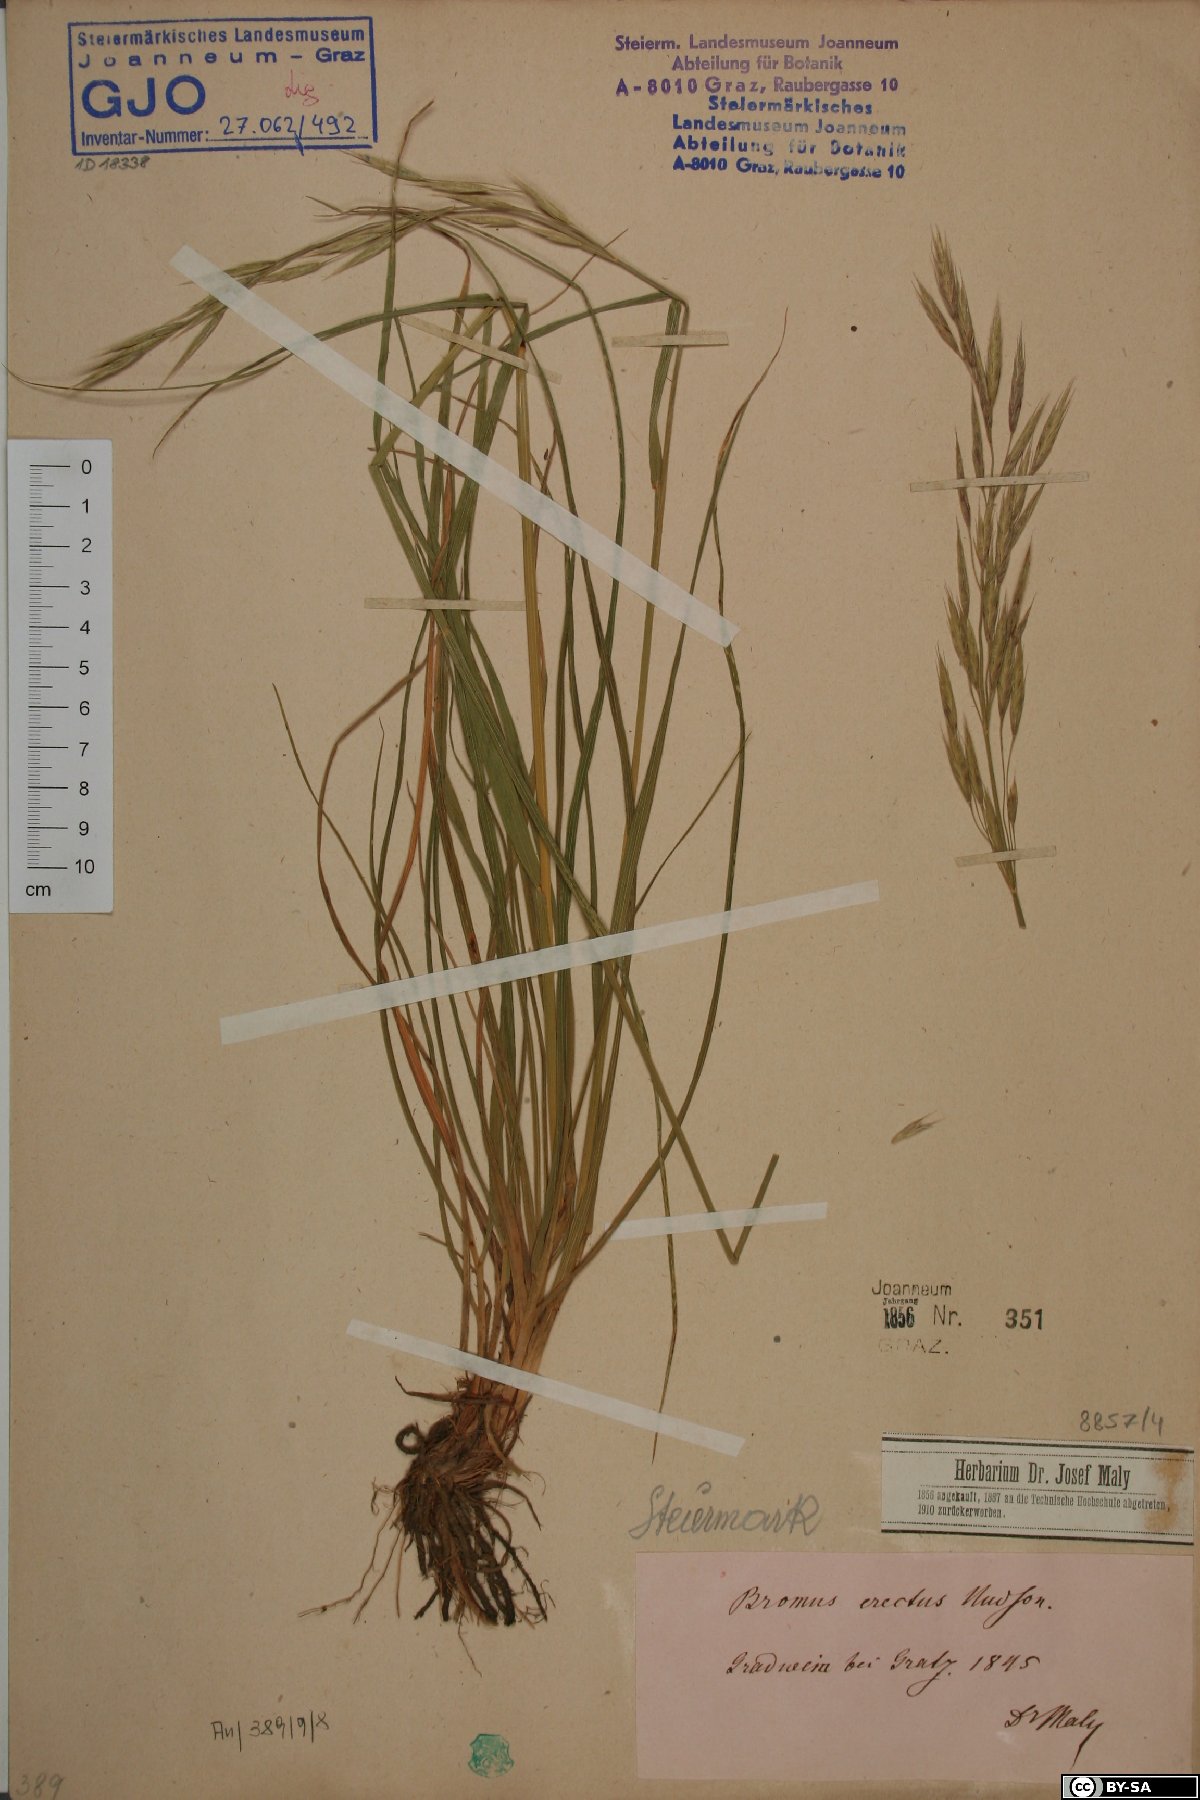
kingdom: Plantae
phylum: Tracheophyta
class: Liliopsida
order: Poales
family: Poaceae
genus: Bromus
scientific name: Bromus erectus
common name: Erect brome
